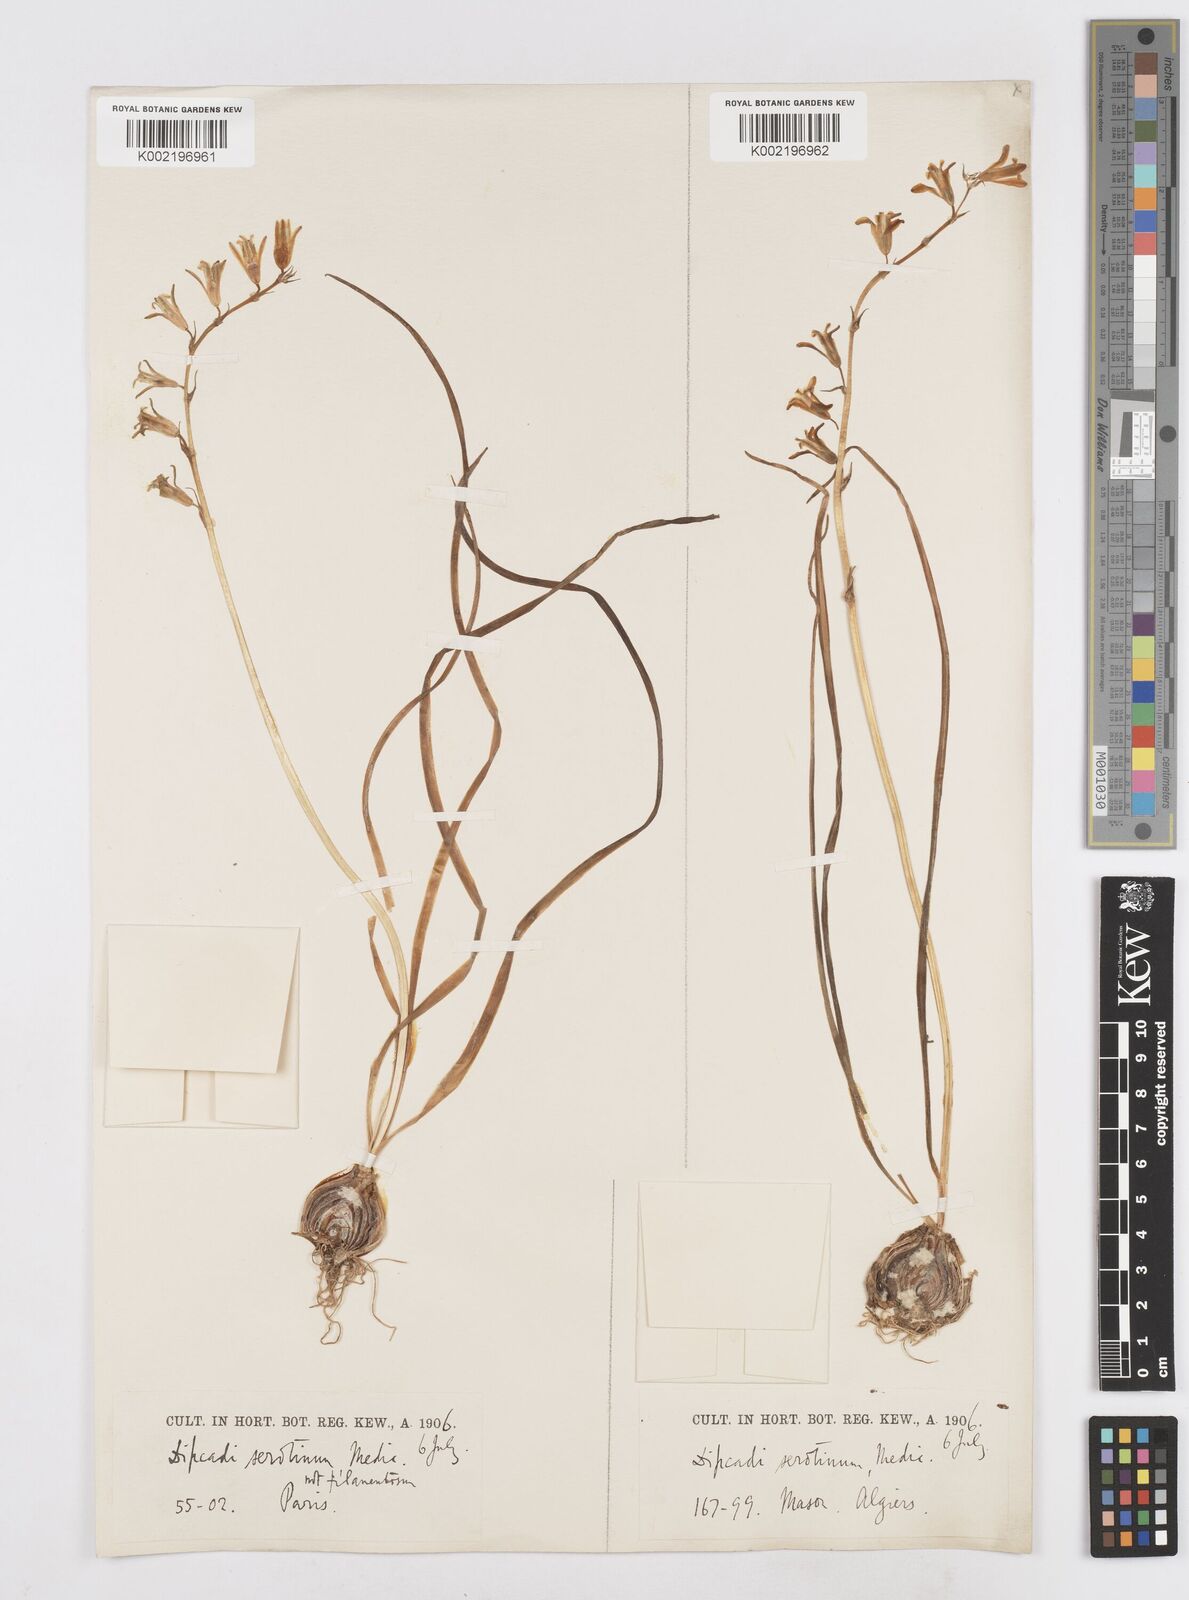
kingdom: Plantae
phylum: Tracheophyta
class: Liliopsida
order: Asparagales
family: Asparagaceae
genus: Dipcadi
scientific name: Dipcadi serotinum
